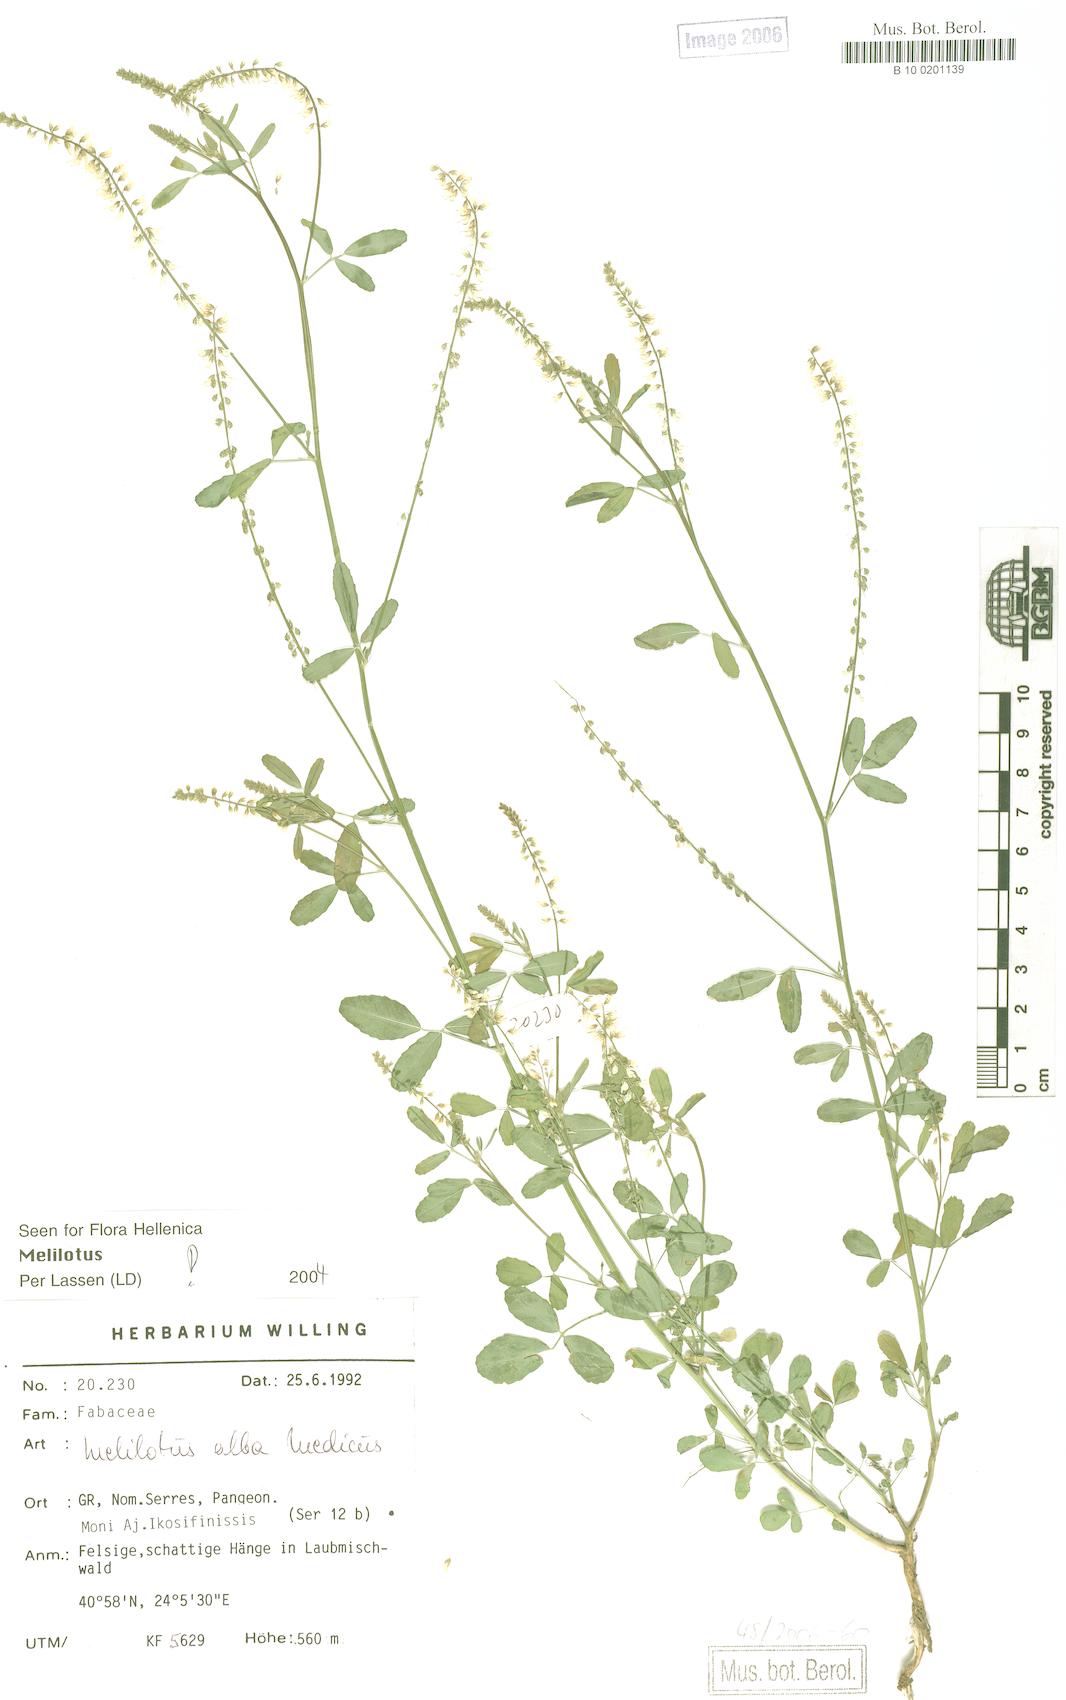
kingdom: Plantae
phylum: Tracheophyta
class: Magnoliopsida
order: Fabales
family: Fabaceae
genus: Melilotus
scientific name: Melilotus albus
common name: White melilot
